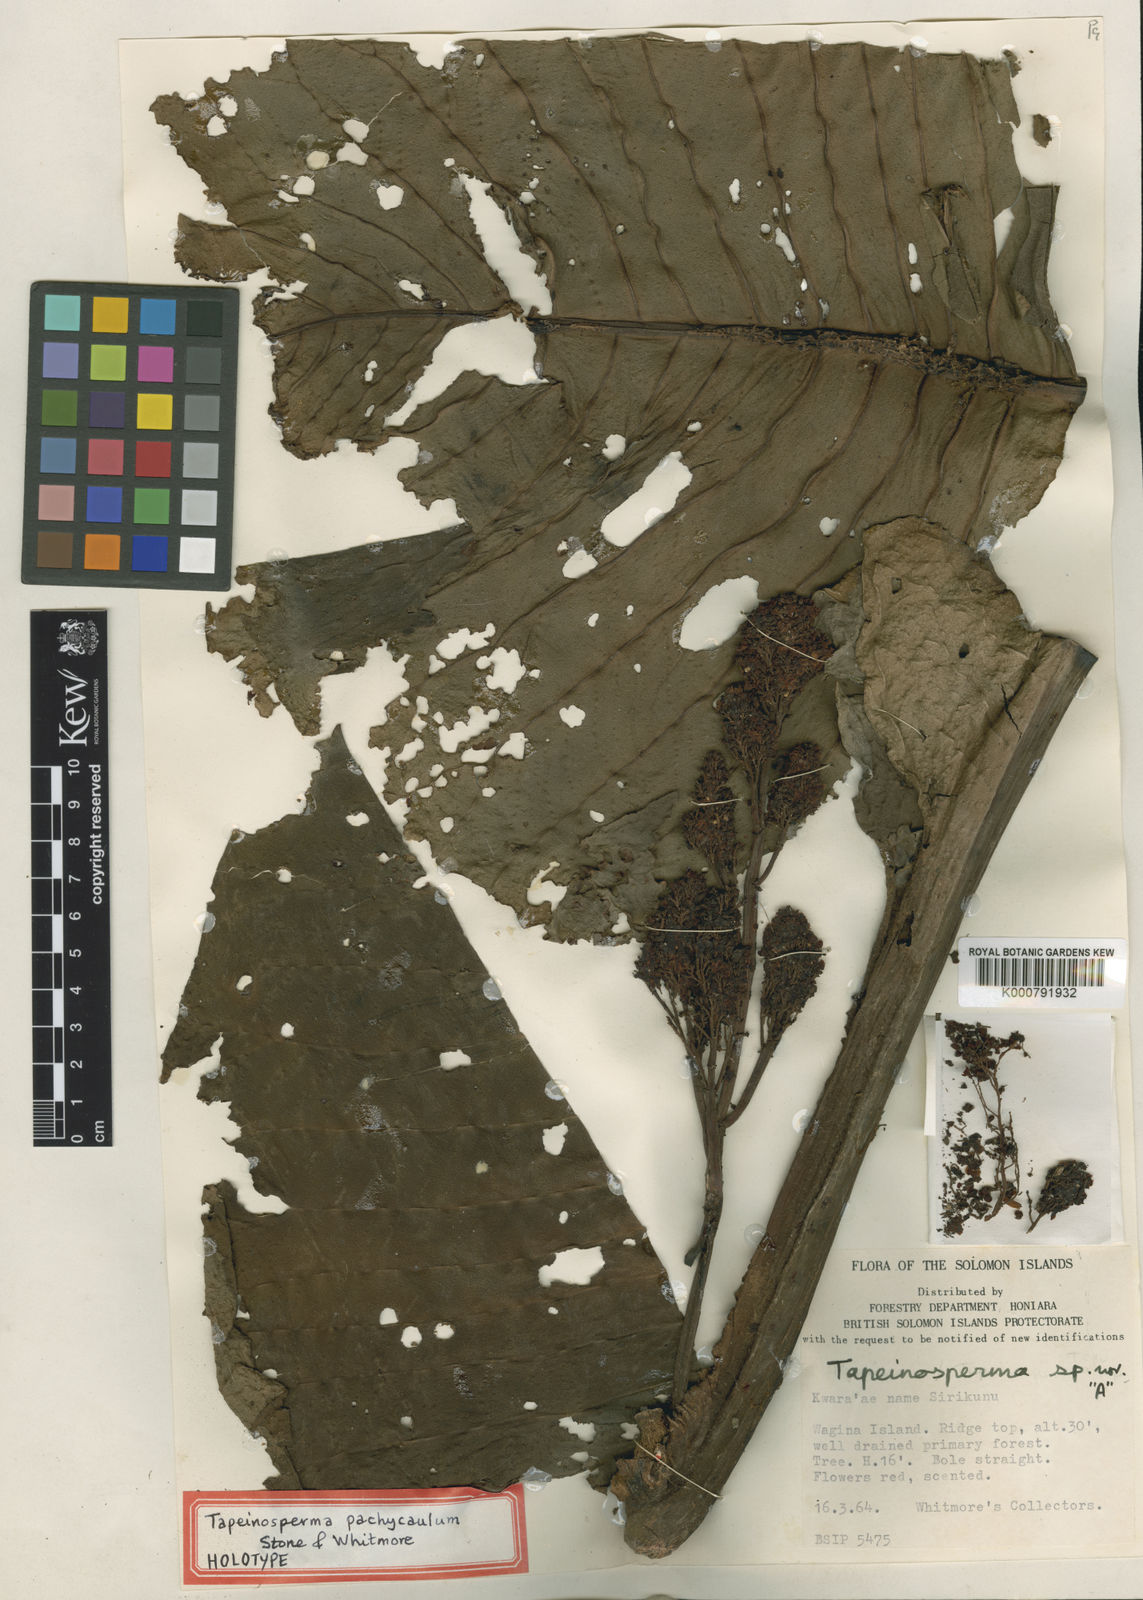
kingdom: Plantae
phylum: Tracheophyta
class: Magnoliopsida
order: Ericales
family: Primulaceae
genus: Tapeinosperma
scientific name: Tapeinosperma pachycaulum
